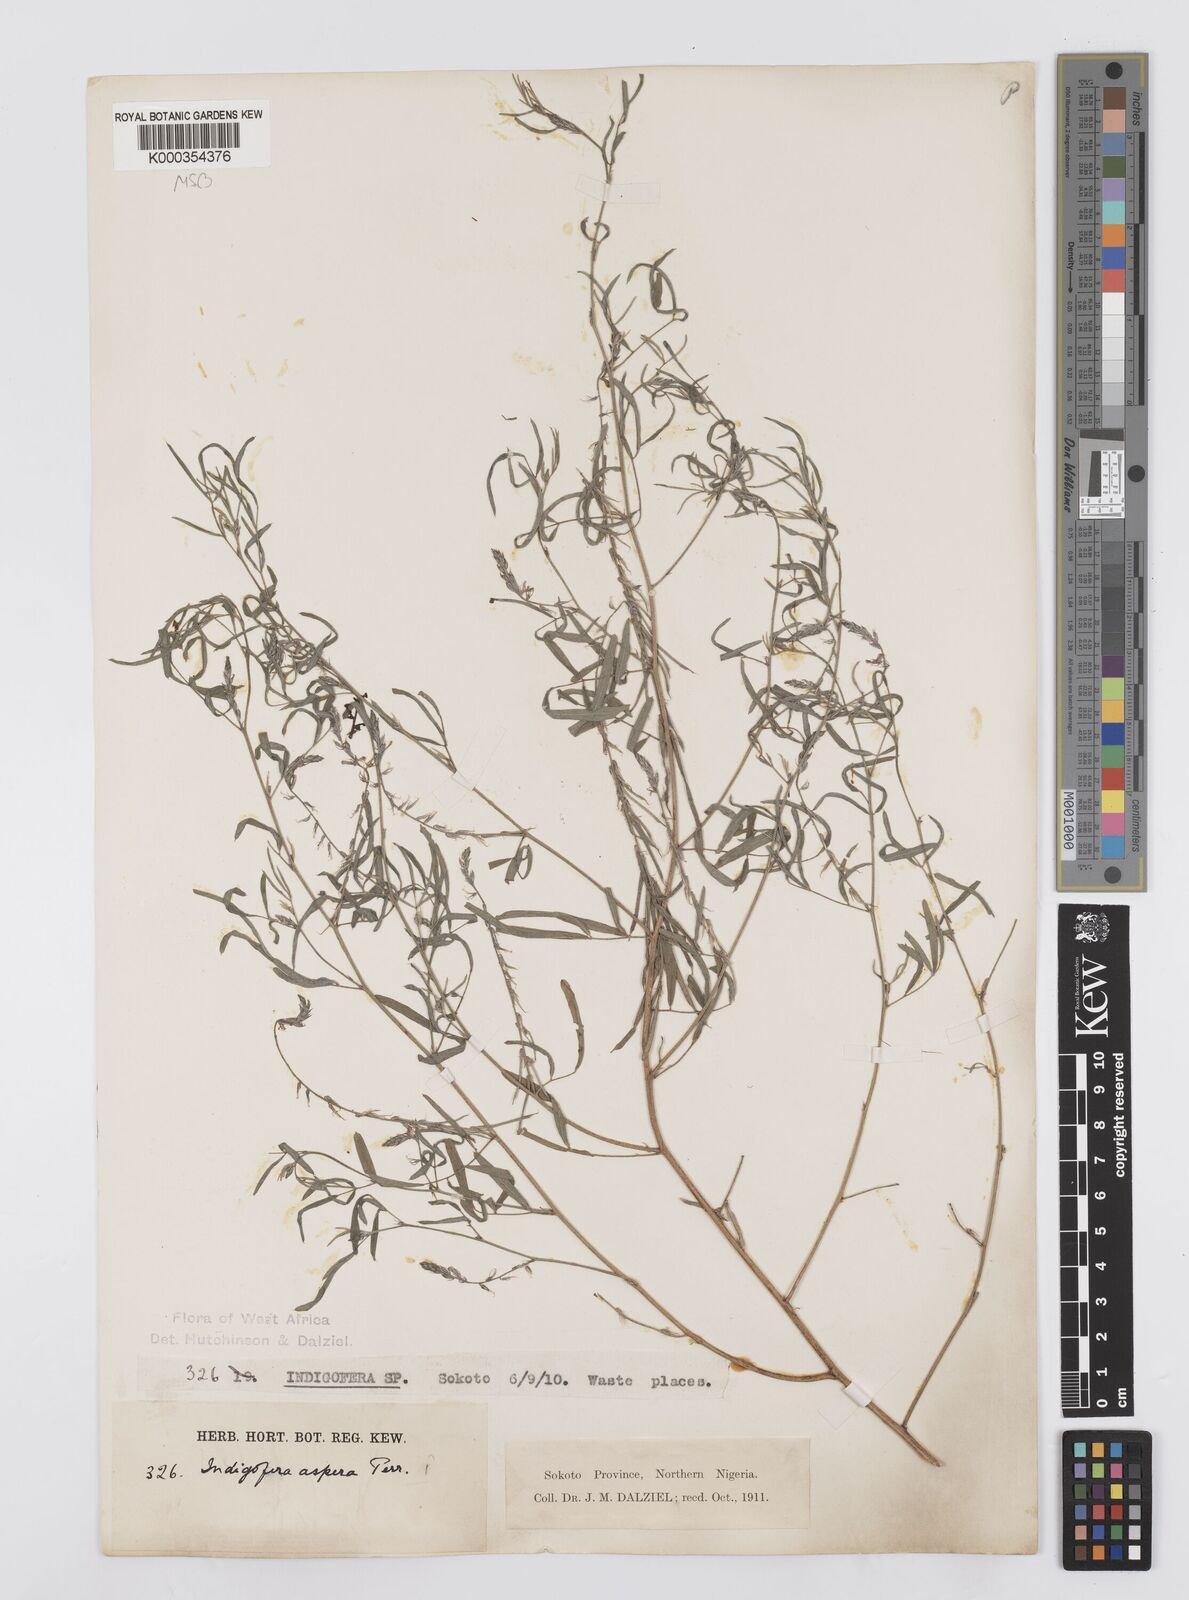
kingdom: Plantae
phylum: Tracheophyta
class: Magnoliopsida
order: Fabales
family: Fabaceae
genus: Indigofera
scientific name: Indigofera aspera
